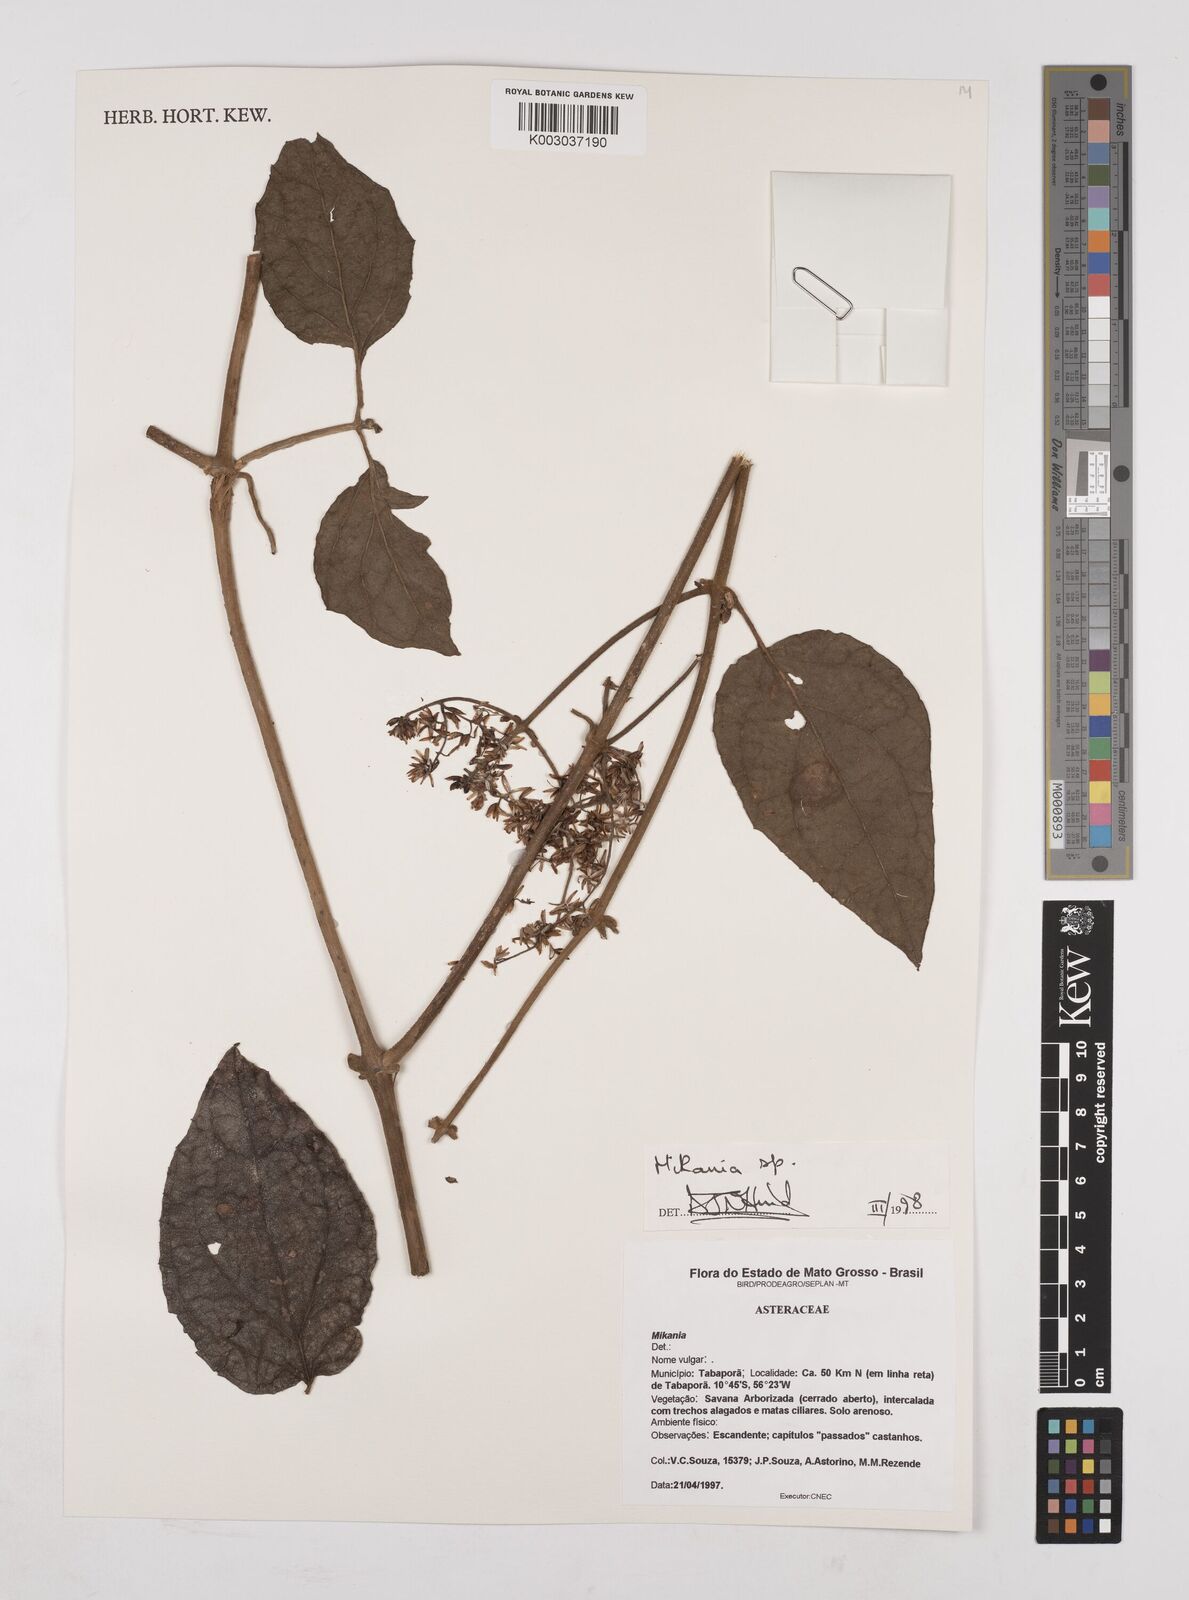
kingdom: Plantae
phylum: Tracheophyta
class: Magnoliopsida
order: Asterales
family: Asteraceae
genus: Mikania
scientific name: Mikania
